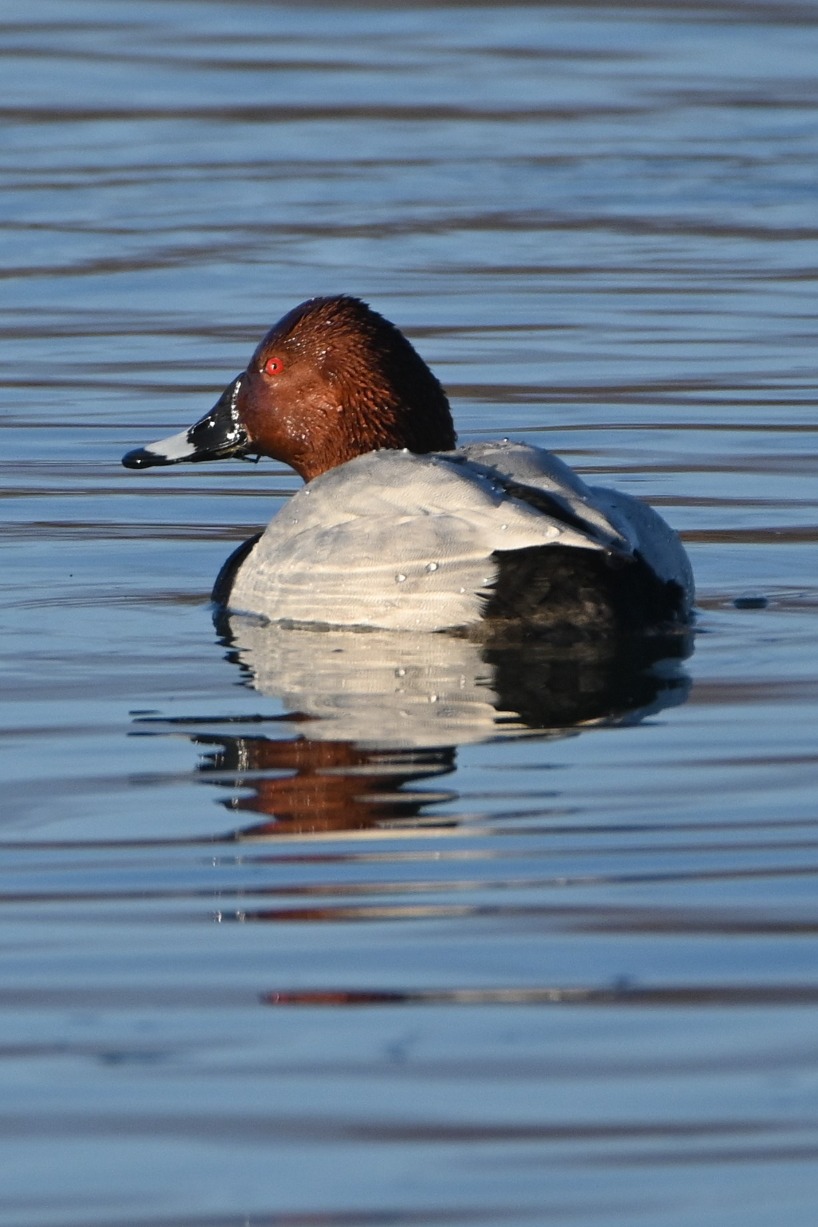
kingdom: Animalia
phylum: Chordata
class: Aves
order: Anseriformes
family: Anatidae
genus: Aythya
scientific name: Aythya ferina
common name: Taffeland
